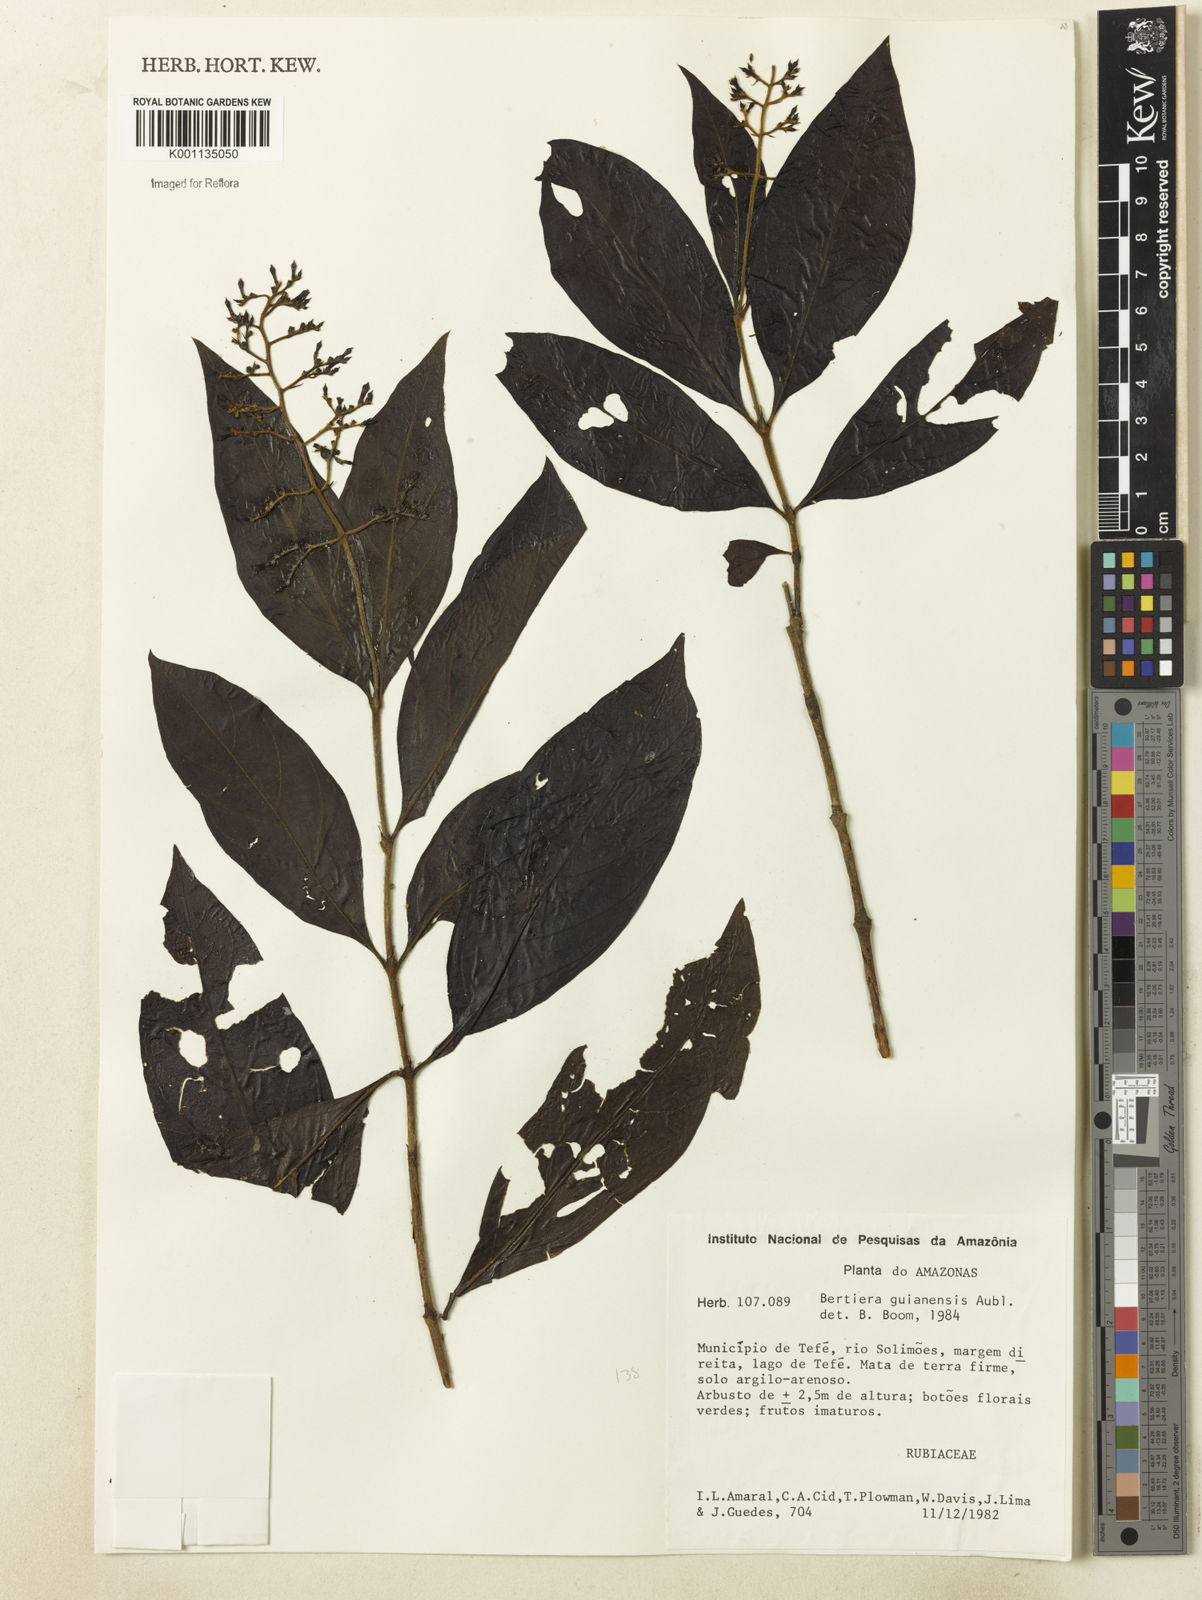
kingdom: Plantae
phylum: Tracheophyta
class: Magnoliopsida
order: Gentianales
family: Rubiaceae
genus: Bertiera
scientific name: Bertiera guianensis
